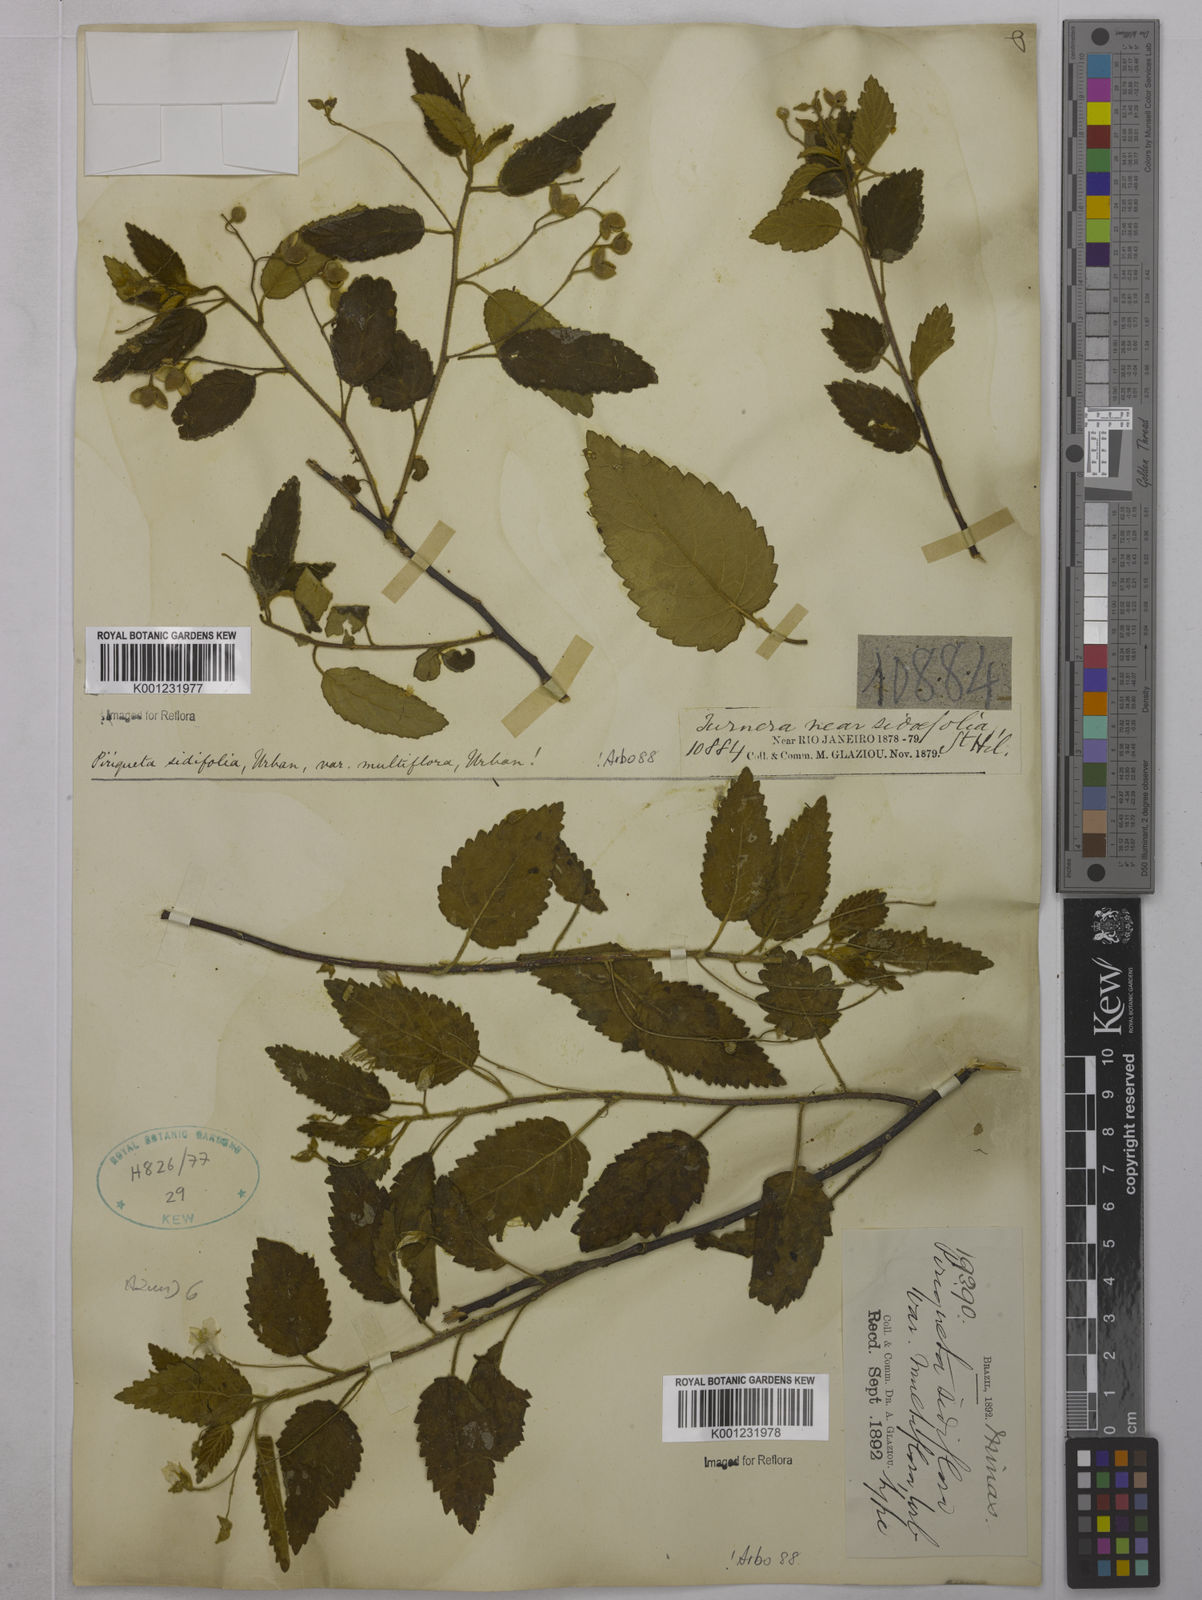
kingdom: Plantae
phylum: Tracheophyta
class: Magnoliopsida
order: Malpighiales
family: Turneraceae
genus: Piriqueta
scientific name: Piriqueta sidifolia
